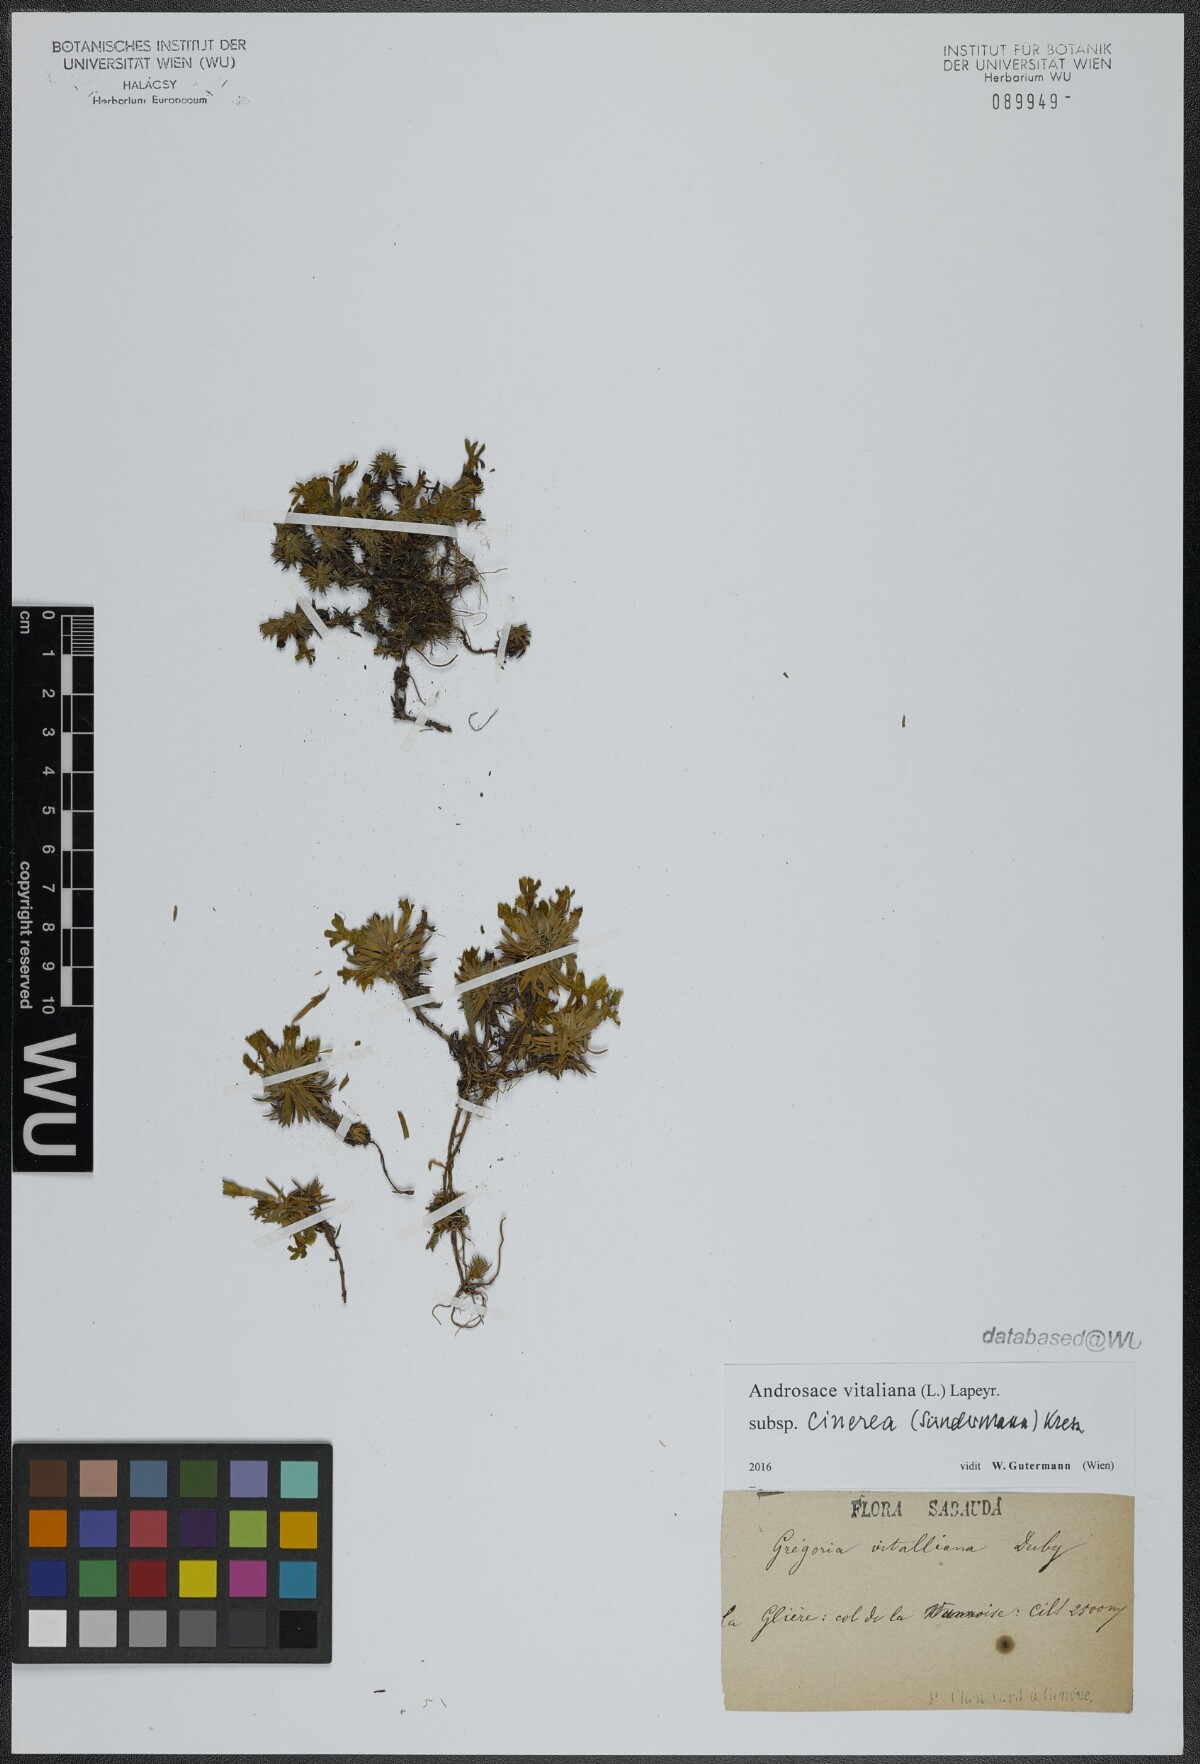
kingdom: Plantae
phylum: Tracheophyta
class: Magnoliopsida
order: Ericales
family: Primulaceae
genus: Androsace
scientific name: Androsace vitaliana
